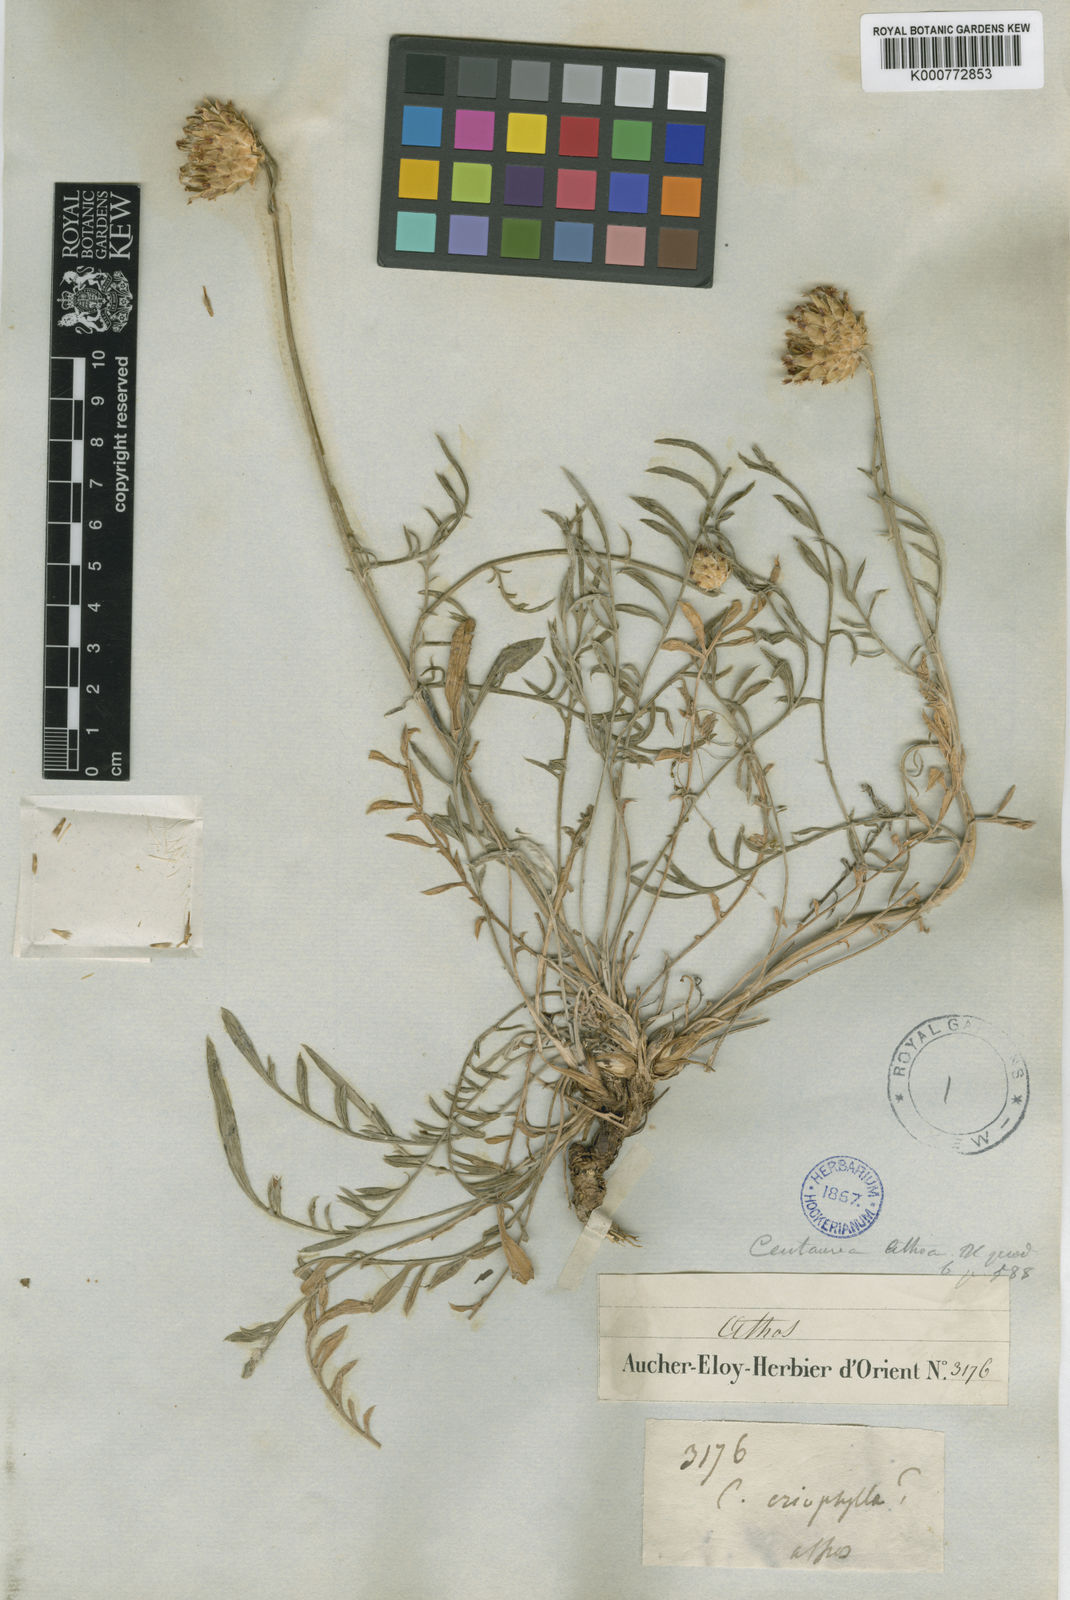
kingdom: Plantae
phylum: Tracheophyta
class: Magnoliopsida
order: Asterales
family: Asteraceae
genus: Centaurea
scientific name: Centaurea rupestris
